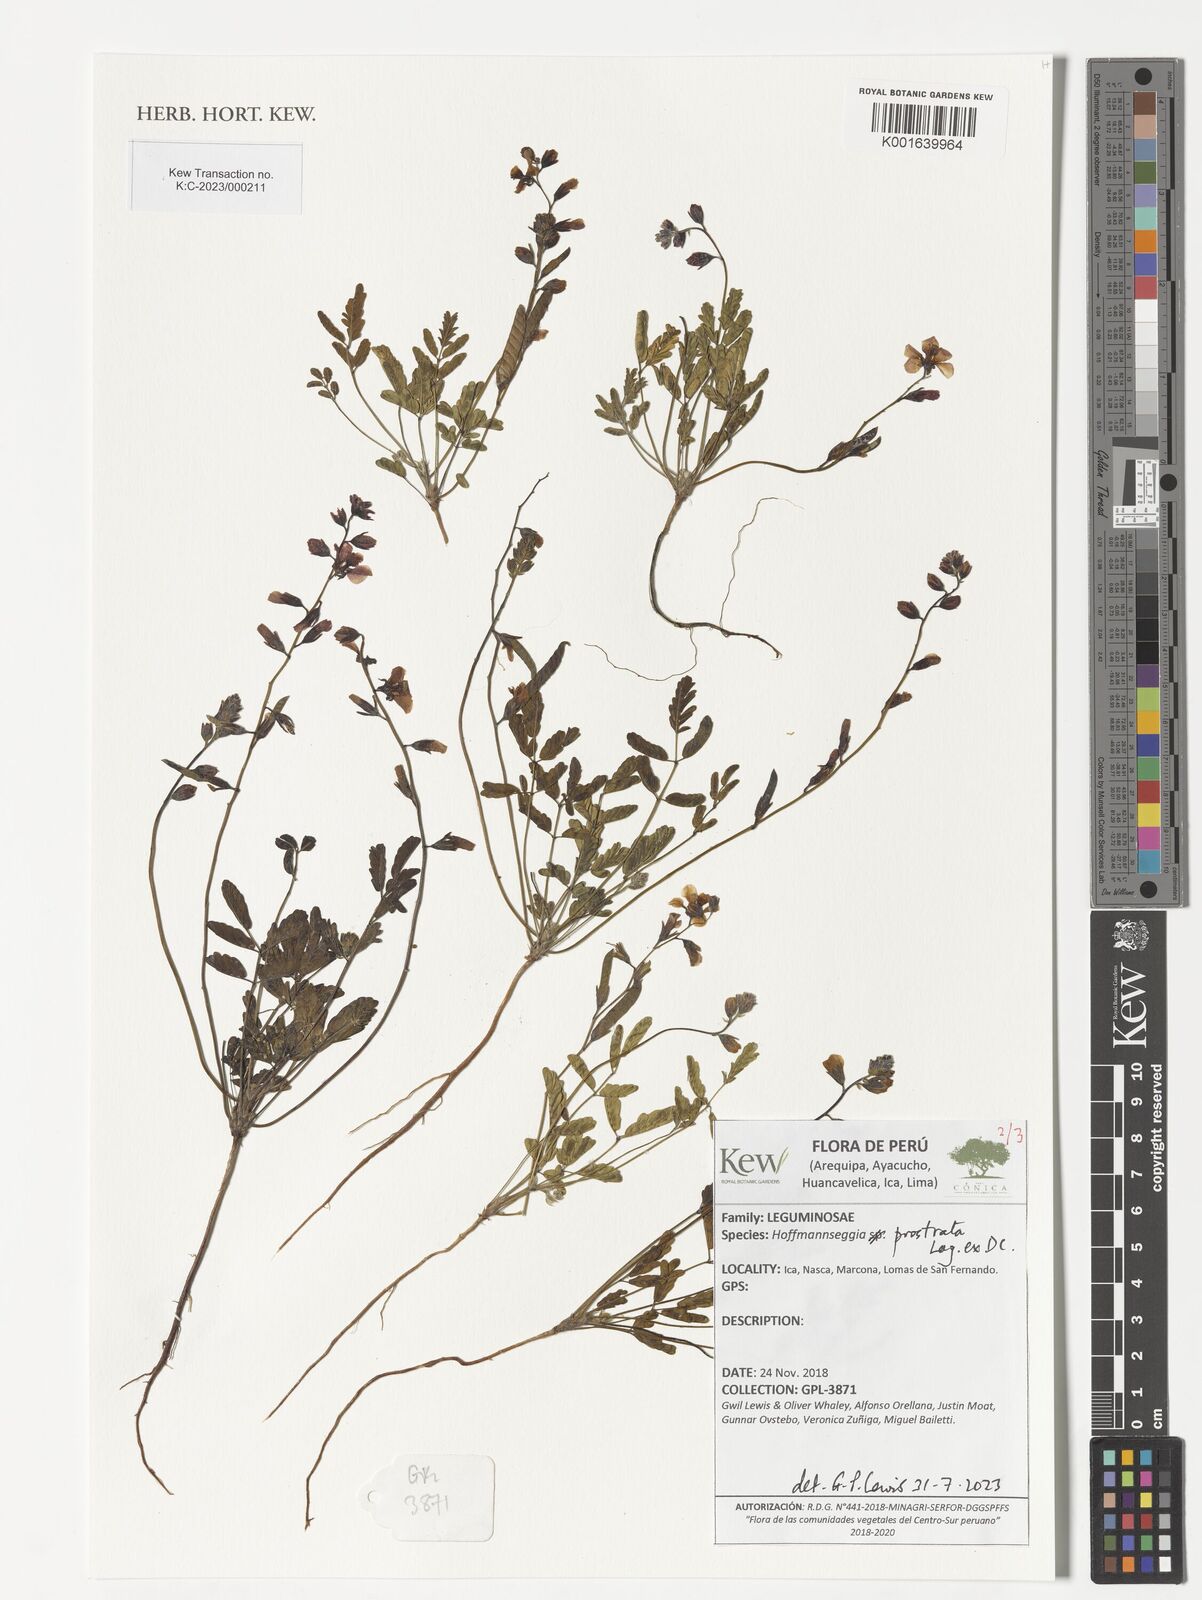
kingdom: Plantae
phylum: Tracheophyta
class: Magnoliopsida
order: Fabales
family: Fabaceae
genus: Hoffmannseggia
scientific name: Hoffmannseggia prostrata
